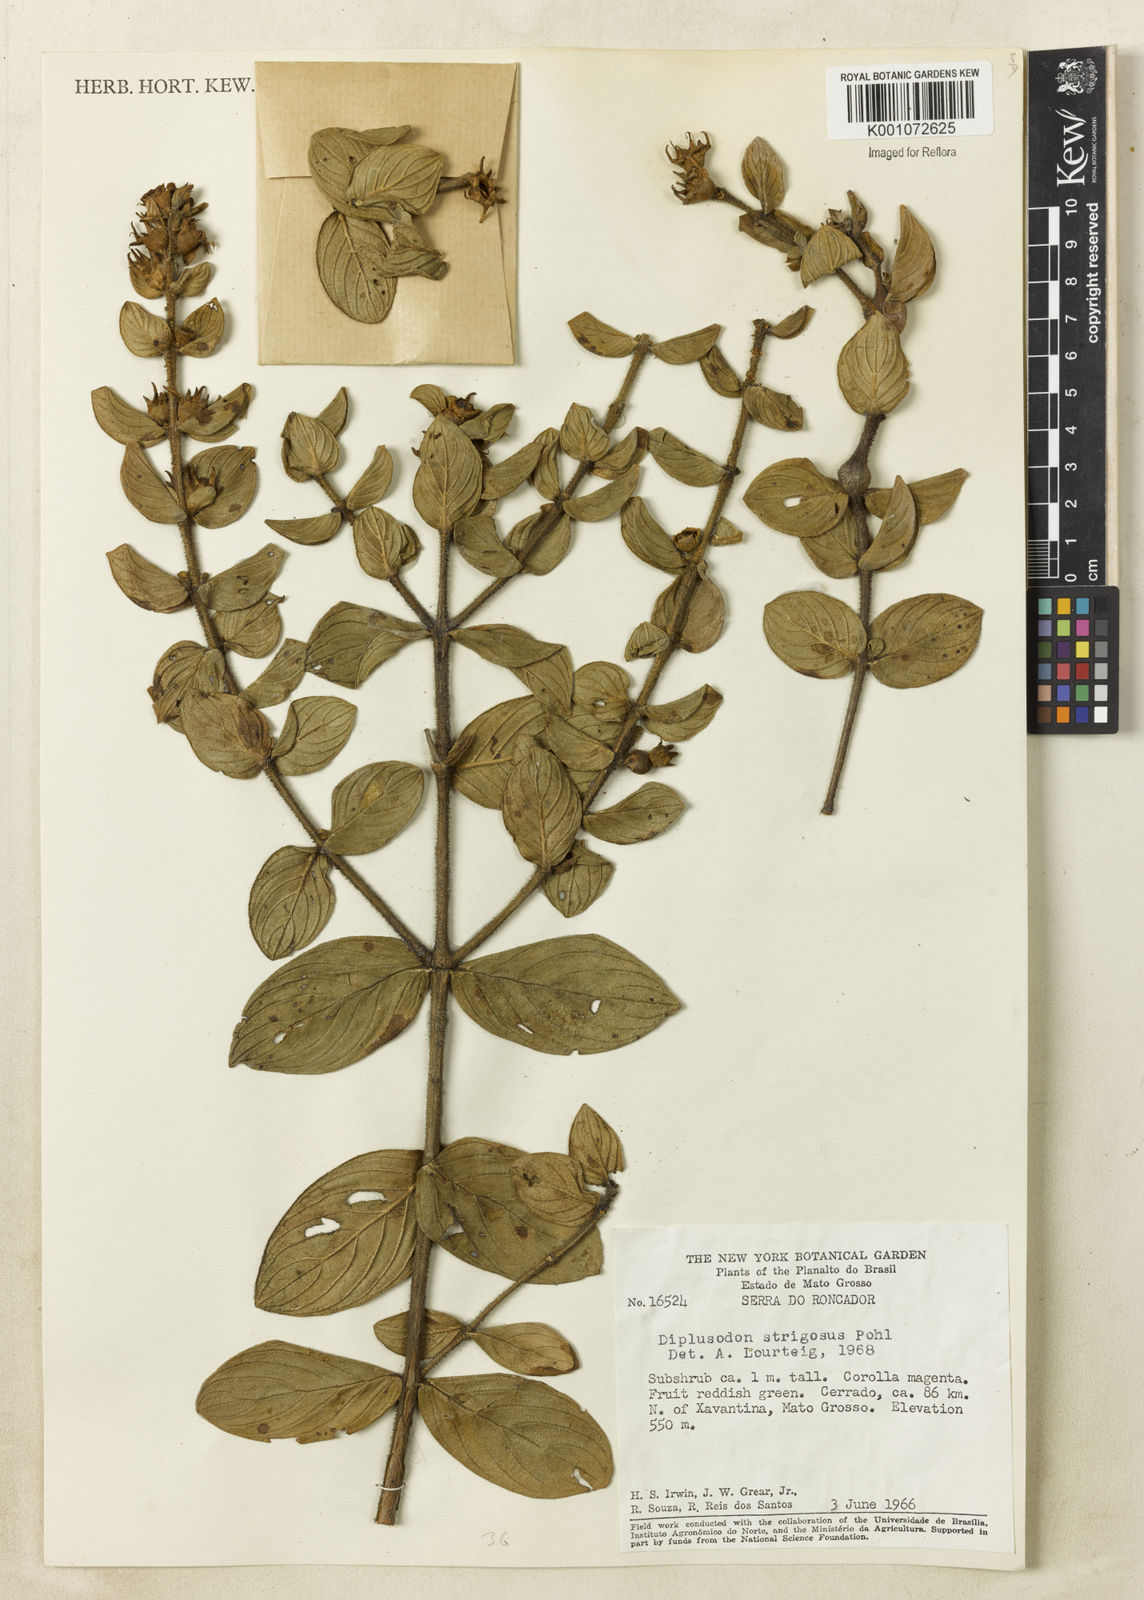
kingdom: Plantae
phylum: Tracheophyta
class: Magnoliopsida
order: Myrtales
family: Lythraceae
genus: Diplusodon
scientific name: Diplusodon strigosus
